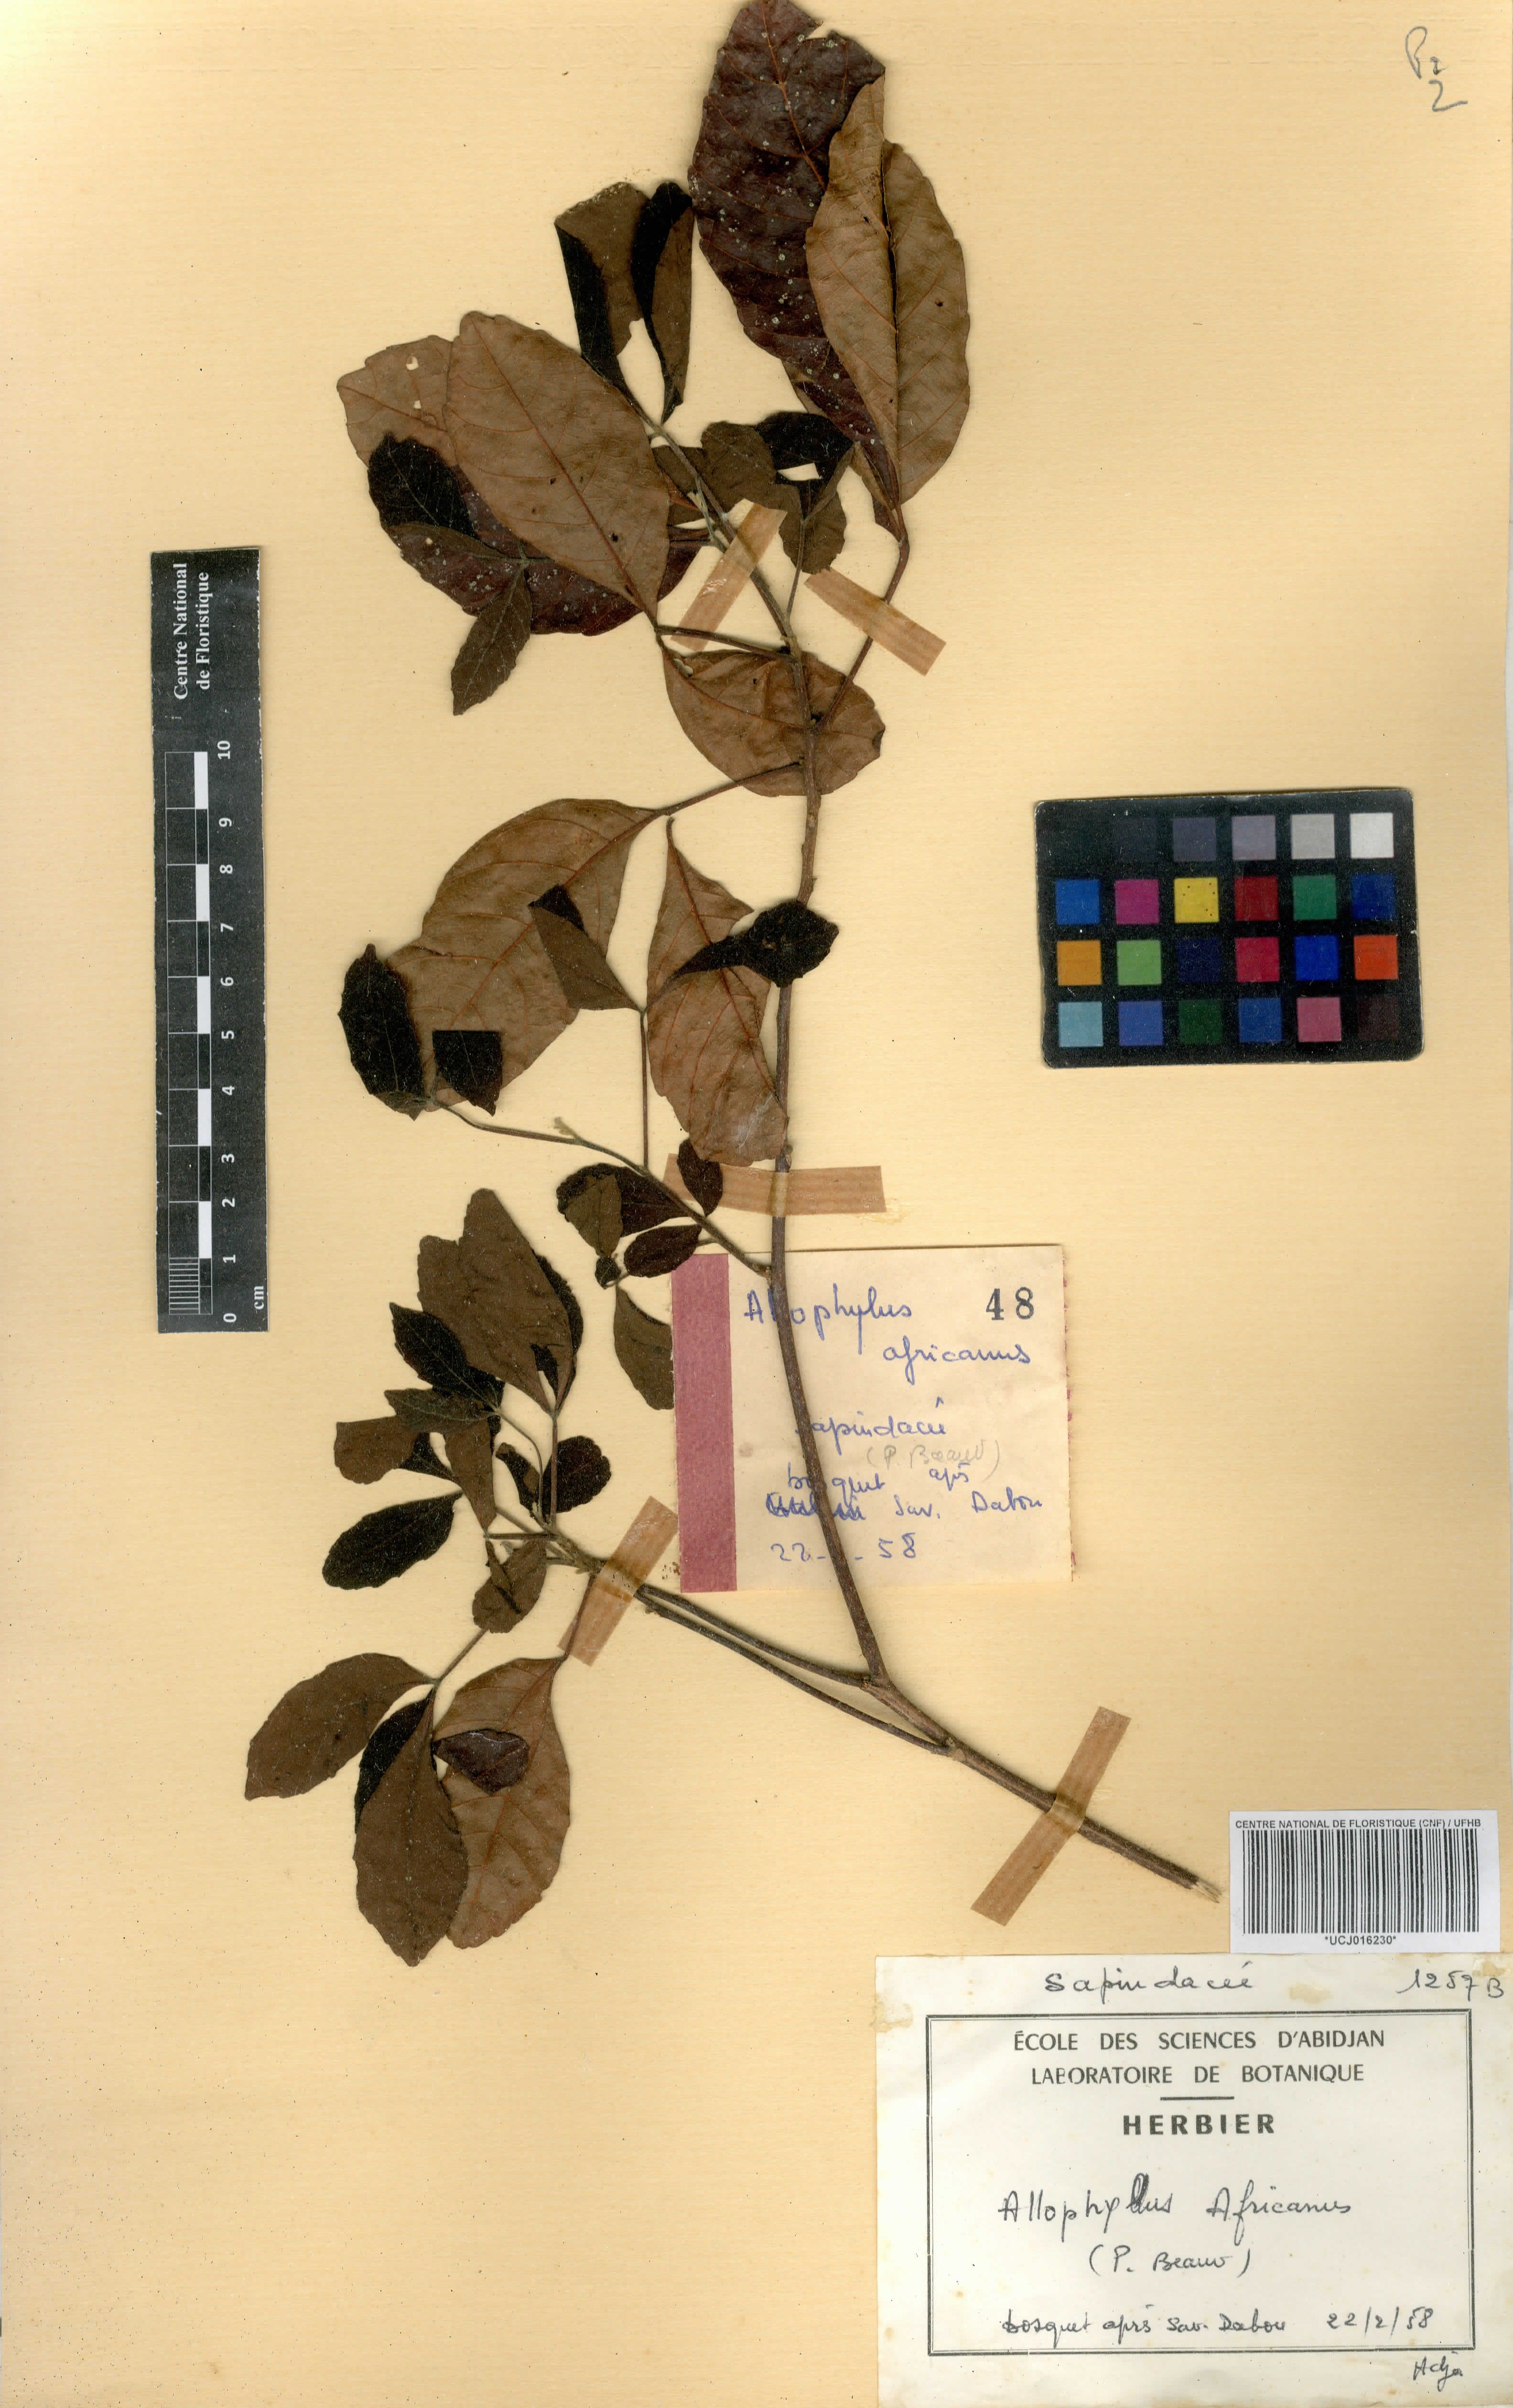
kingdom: Plantae
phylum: Tracheophyta
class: Magnoliopsida
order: Sapindales
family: Sapindaceae
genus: Allophylus
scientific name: Allophylus africanus
